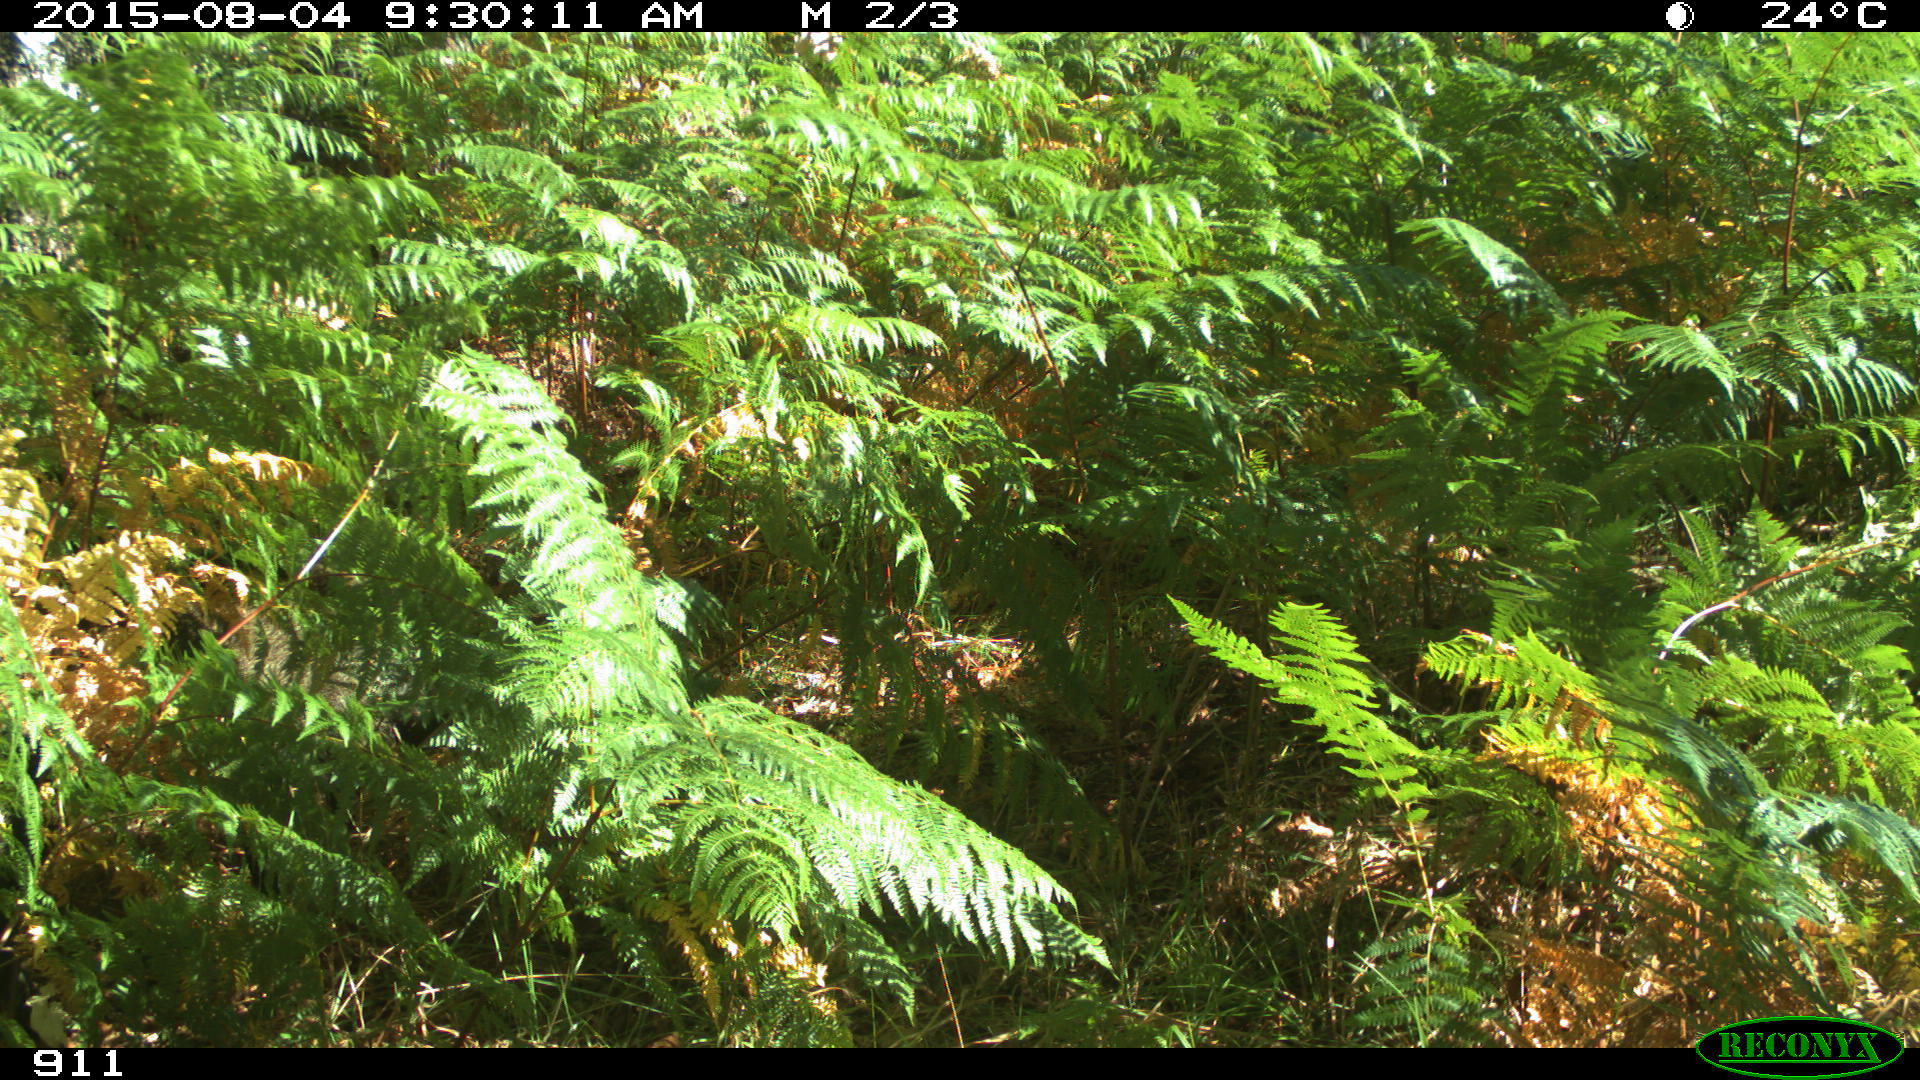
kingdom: Animalia
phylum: Chordata
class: Mammalia
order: Artiodactyla
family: Suidae
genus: Sus
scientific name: Sus scrofa
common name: Wild boar
